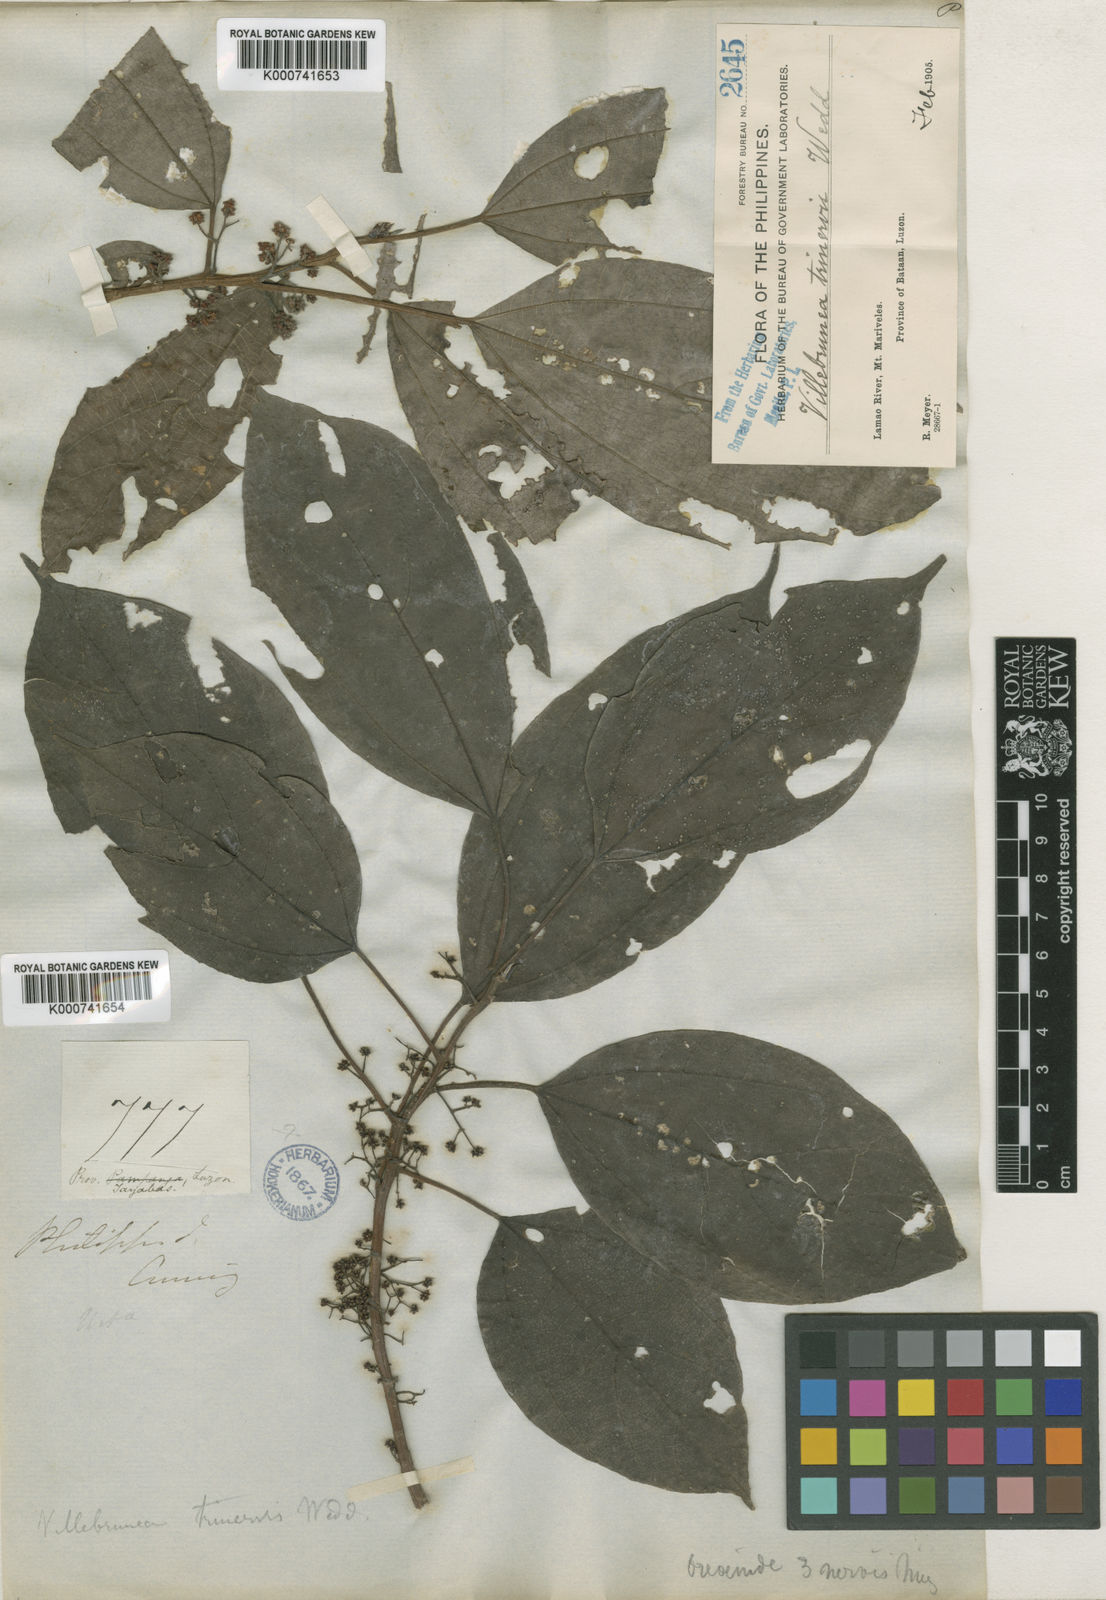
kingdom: Plantae
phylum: Tracheophyta
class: Magnoliopsida
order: Rosales
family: Urticaceae
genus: Oreocnide
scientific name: Oreocnide trinervis
